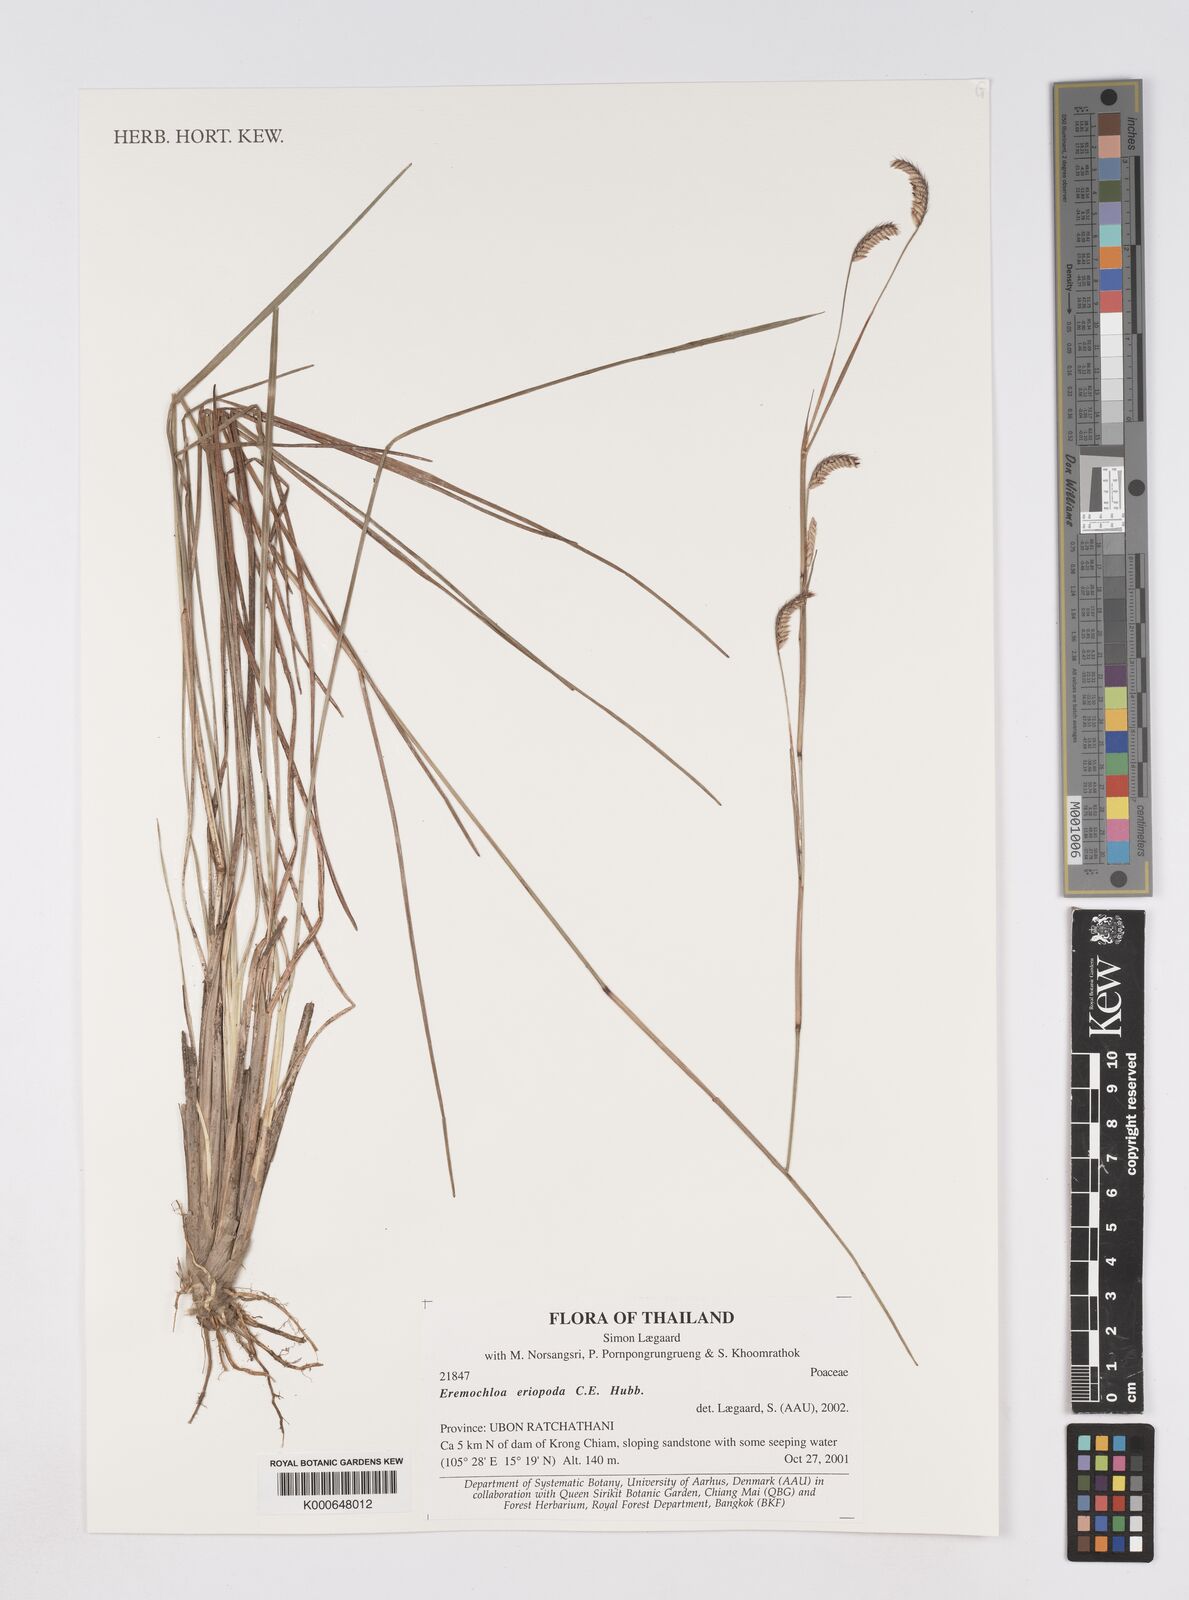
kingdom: Plantae
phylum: Tracheophyta
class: Liliopsida
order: Poales
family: Poaceae
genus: Eremochloa
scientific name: Eremochloa eriopoda
